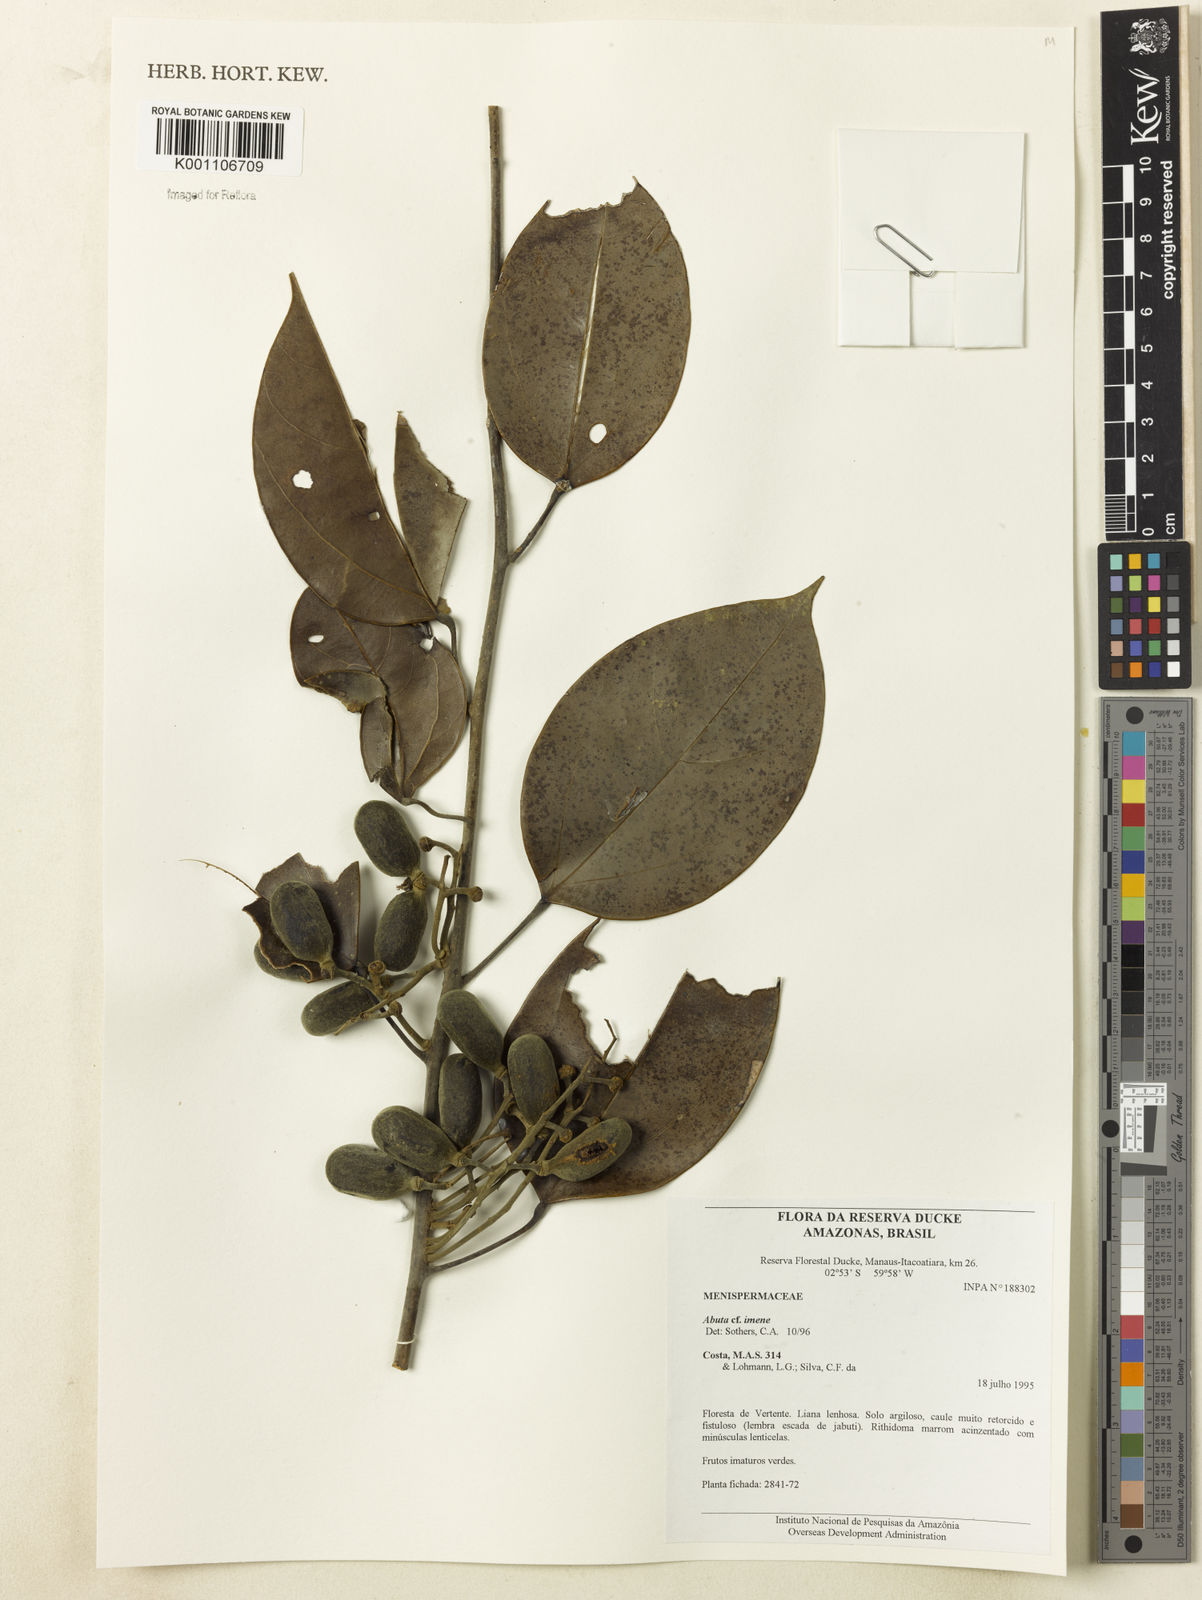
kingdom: Plantae
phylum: Tracheophyta
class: Magnoliopsida
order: Ranunculales
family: Menispermaceae
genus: Abuta
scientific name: Abuta imene
